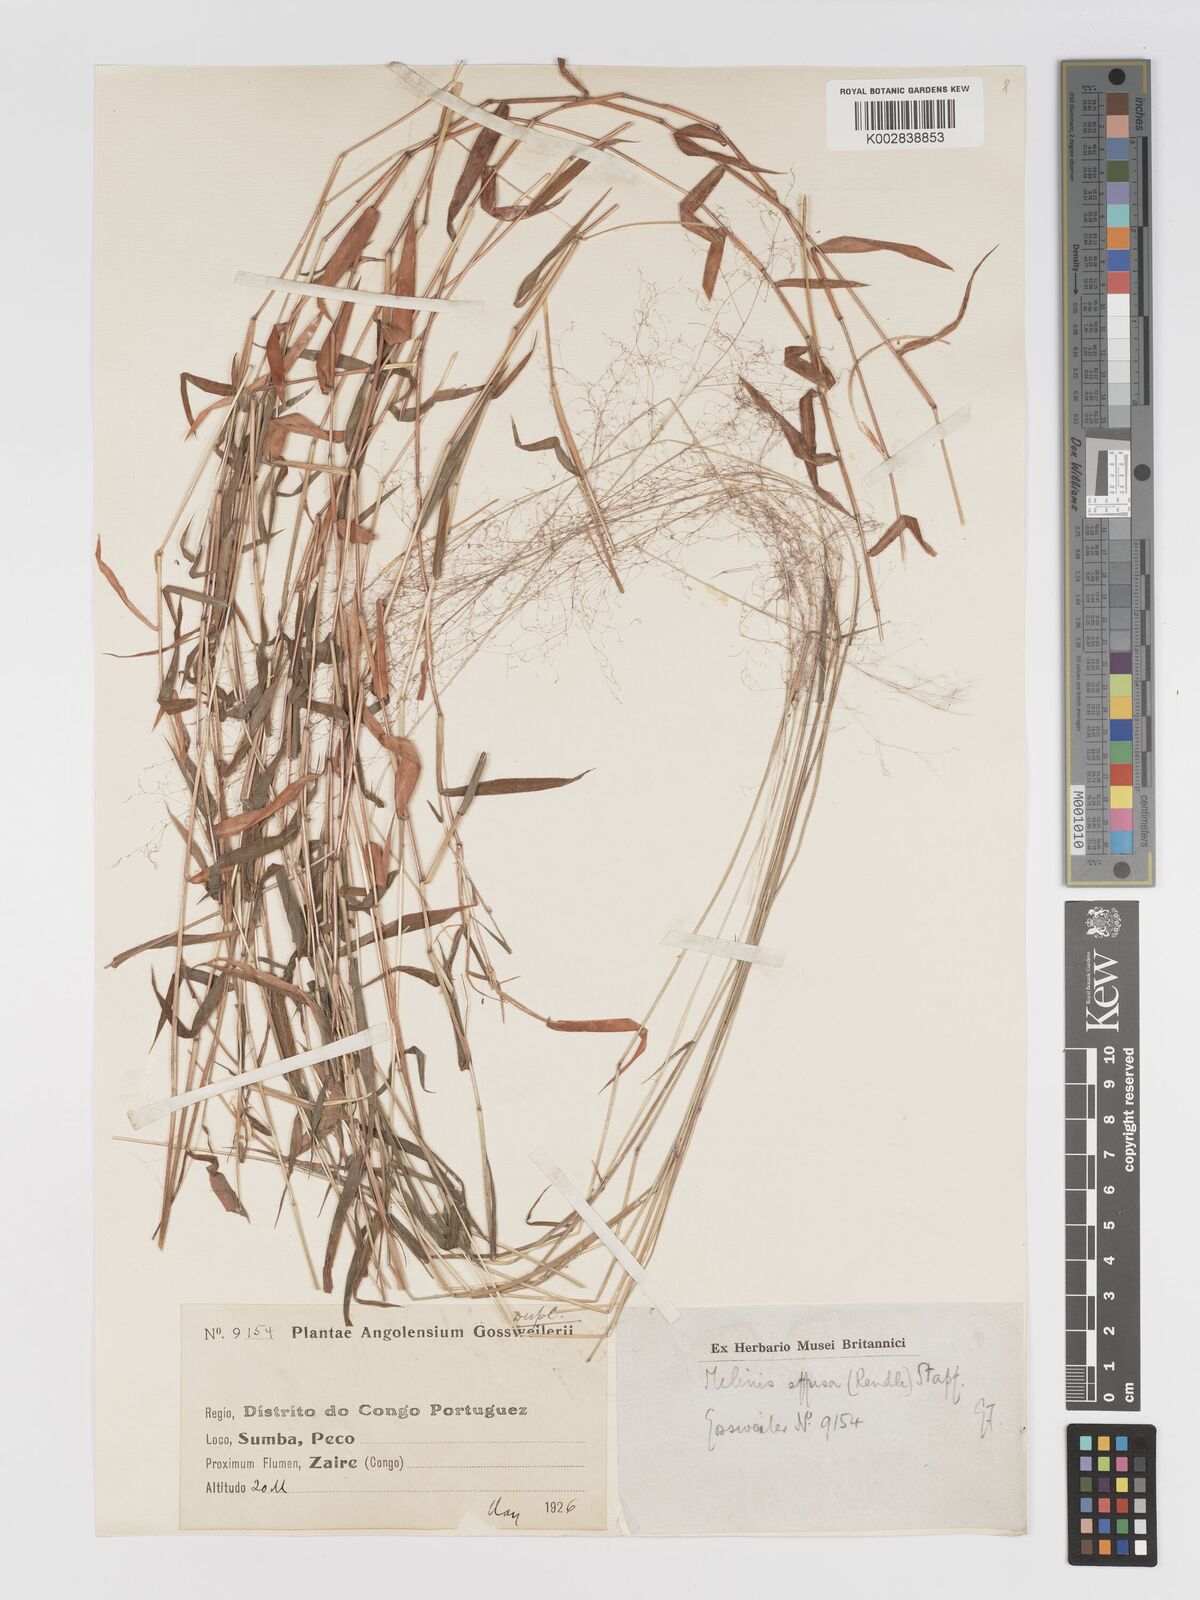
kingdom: Plantae
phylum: Tracheophyta
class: Liliopsida
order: Poales
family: Poaceae
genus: Melinis
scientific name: Melinis tenuissima
